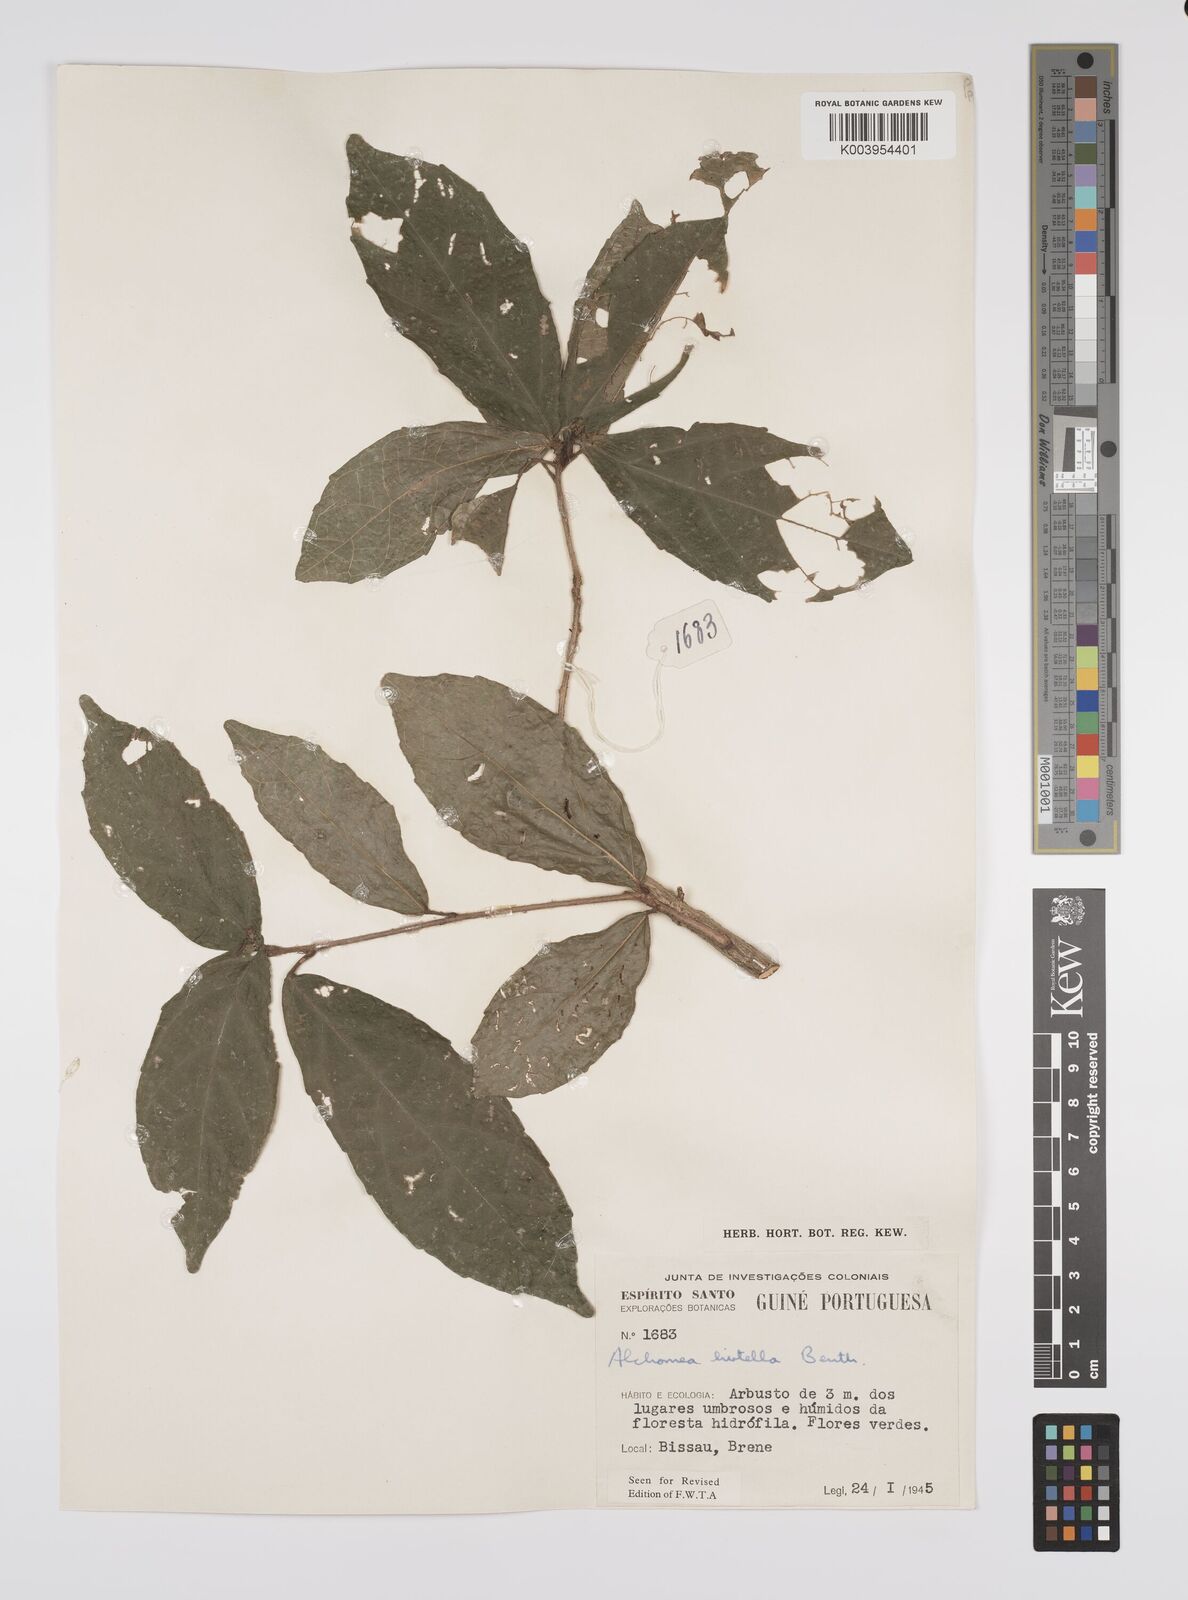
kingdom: Plantae
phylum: Tracheophyta
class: Magnoliopsida
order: Malpighiales
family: Euphorbiaceae
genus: Alchornea
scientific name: Alchornea hirtella
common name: Forest bead-string
